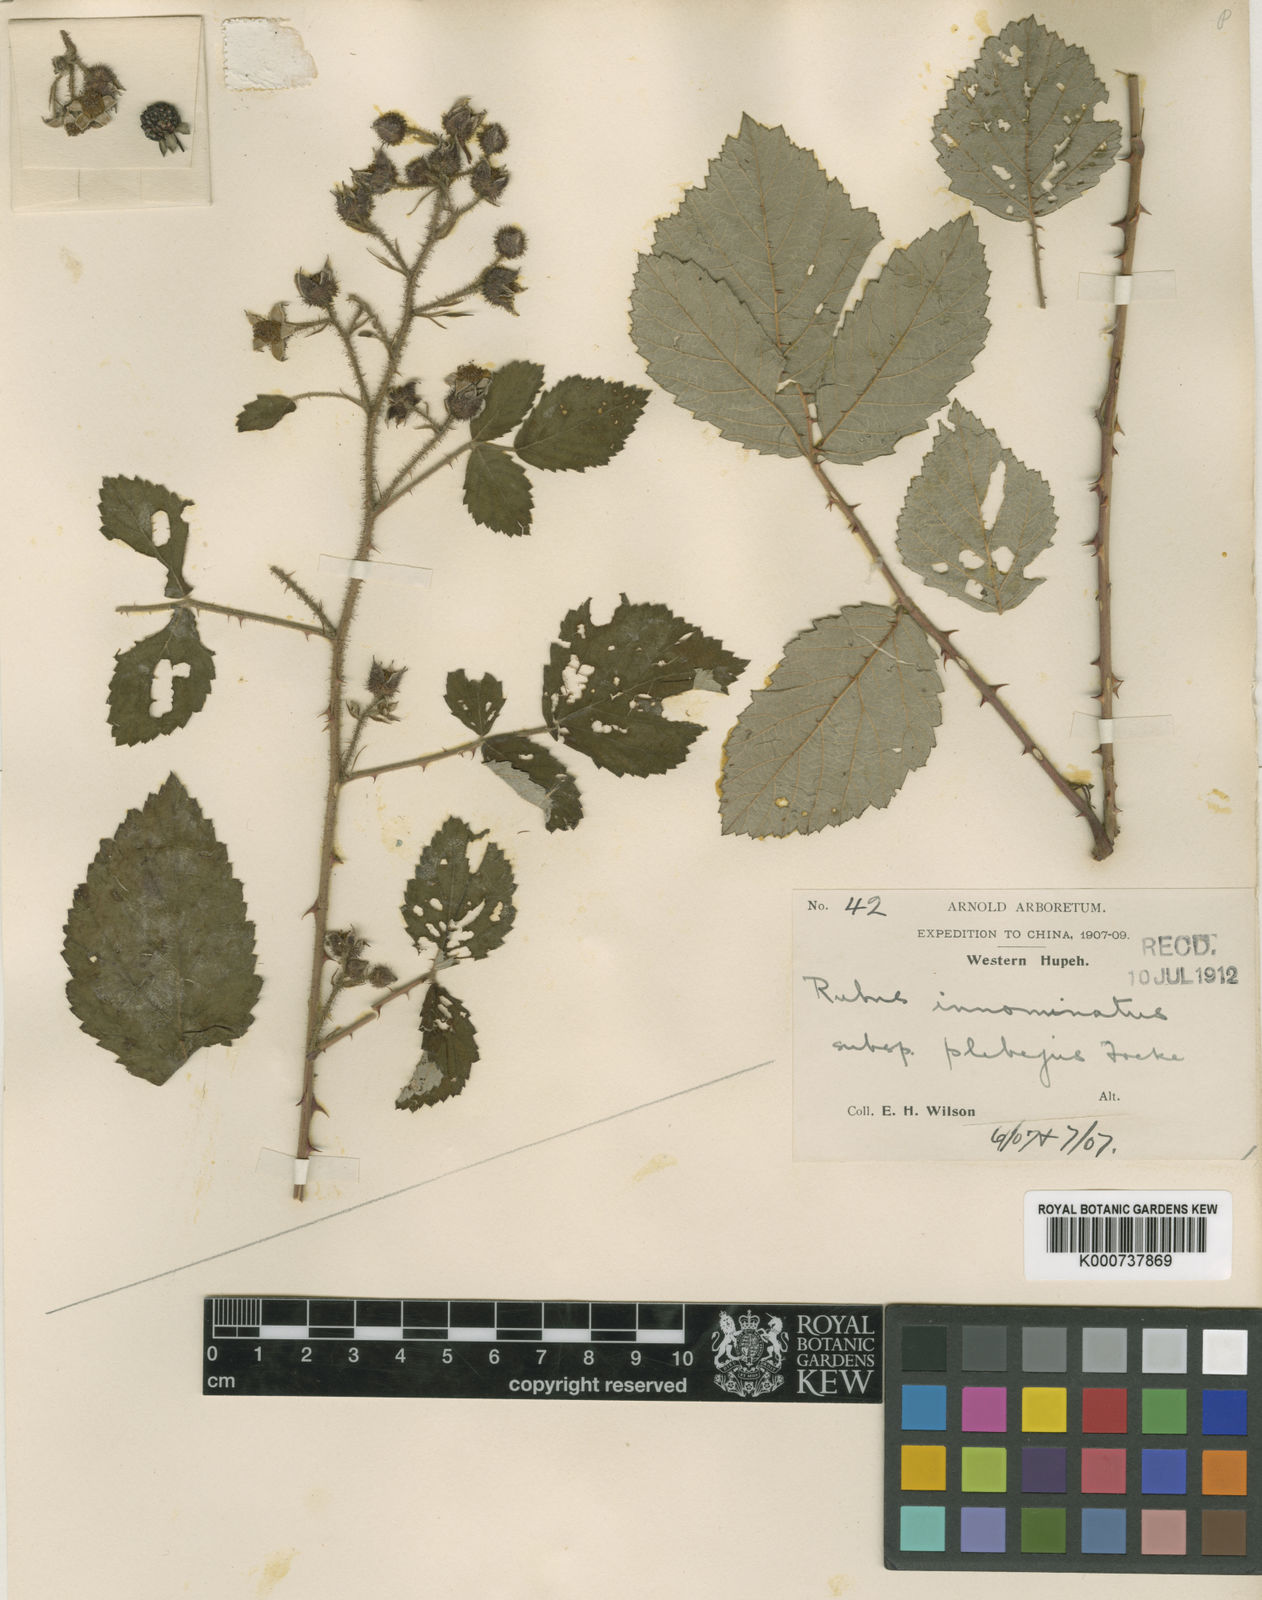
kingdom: Plantae
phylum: Tracheophyta
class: Magnoliopsida
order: Rosales
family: Rosaceae
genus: Rubus
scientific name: Rubus
